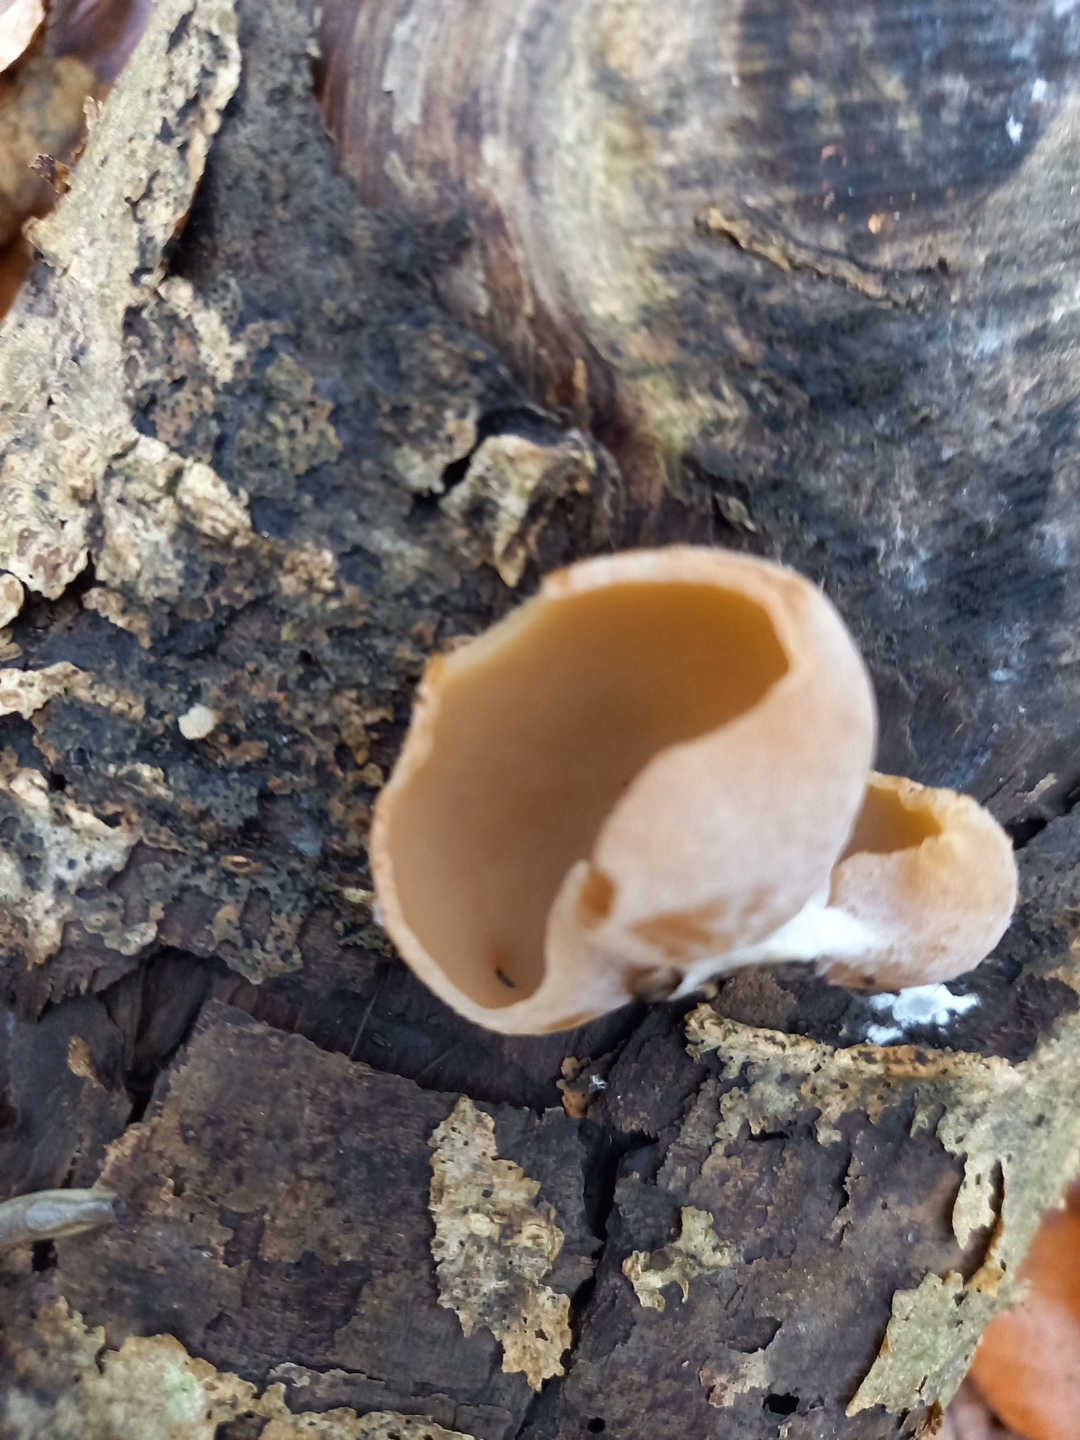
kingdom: Fungi
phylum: Ascomycota
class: Pezizomycetes
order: Pezizales
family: Pezizaceae
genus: Peziza
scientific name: Peziza varia
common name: Ved-bægersvamp
